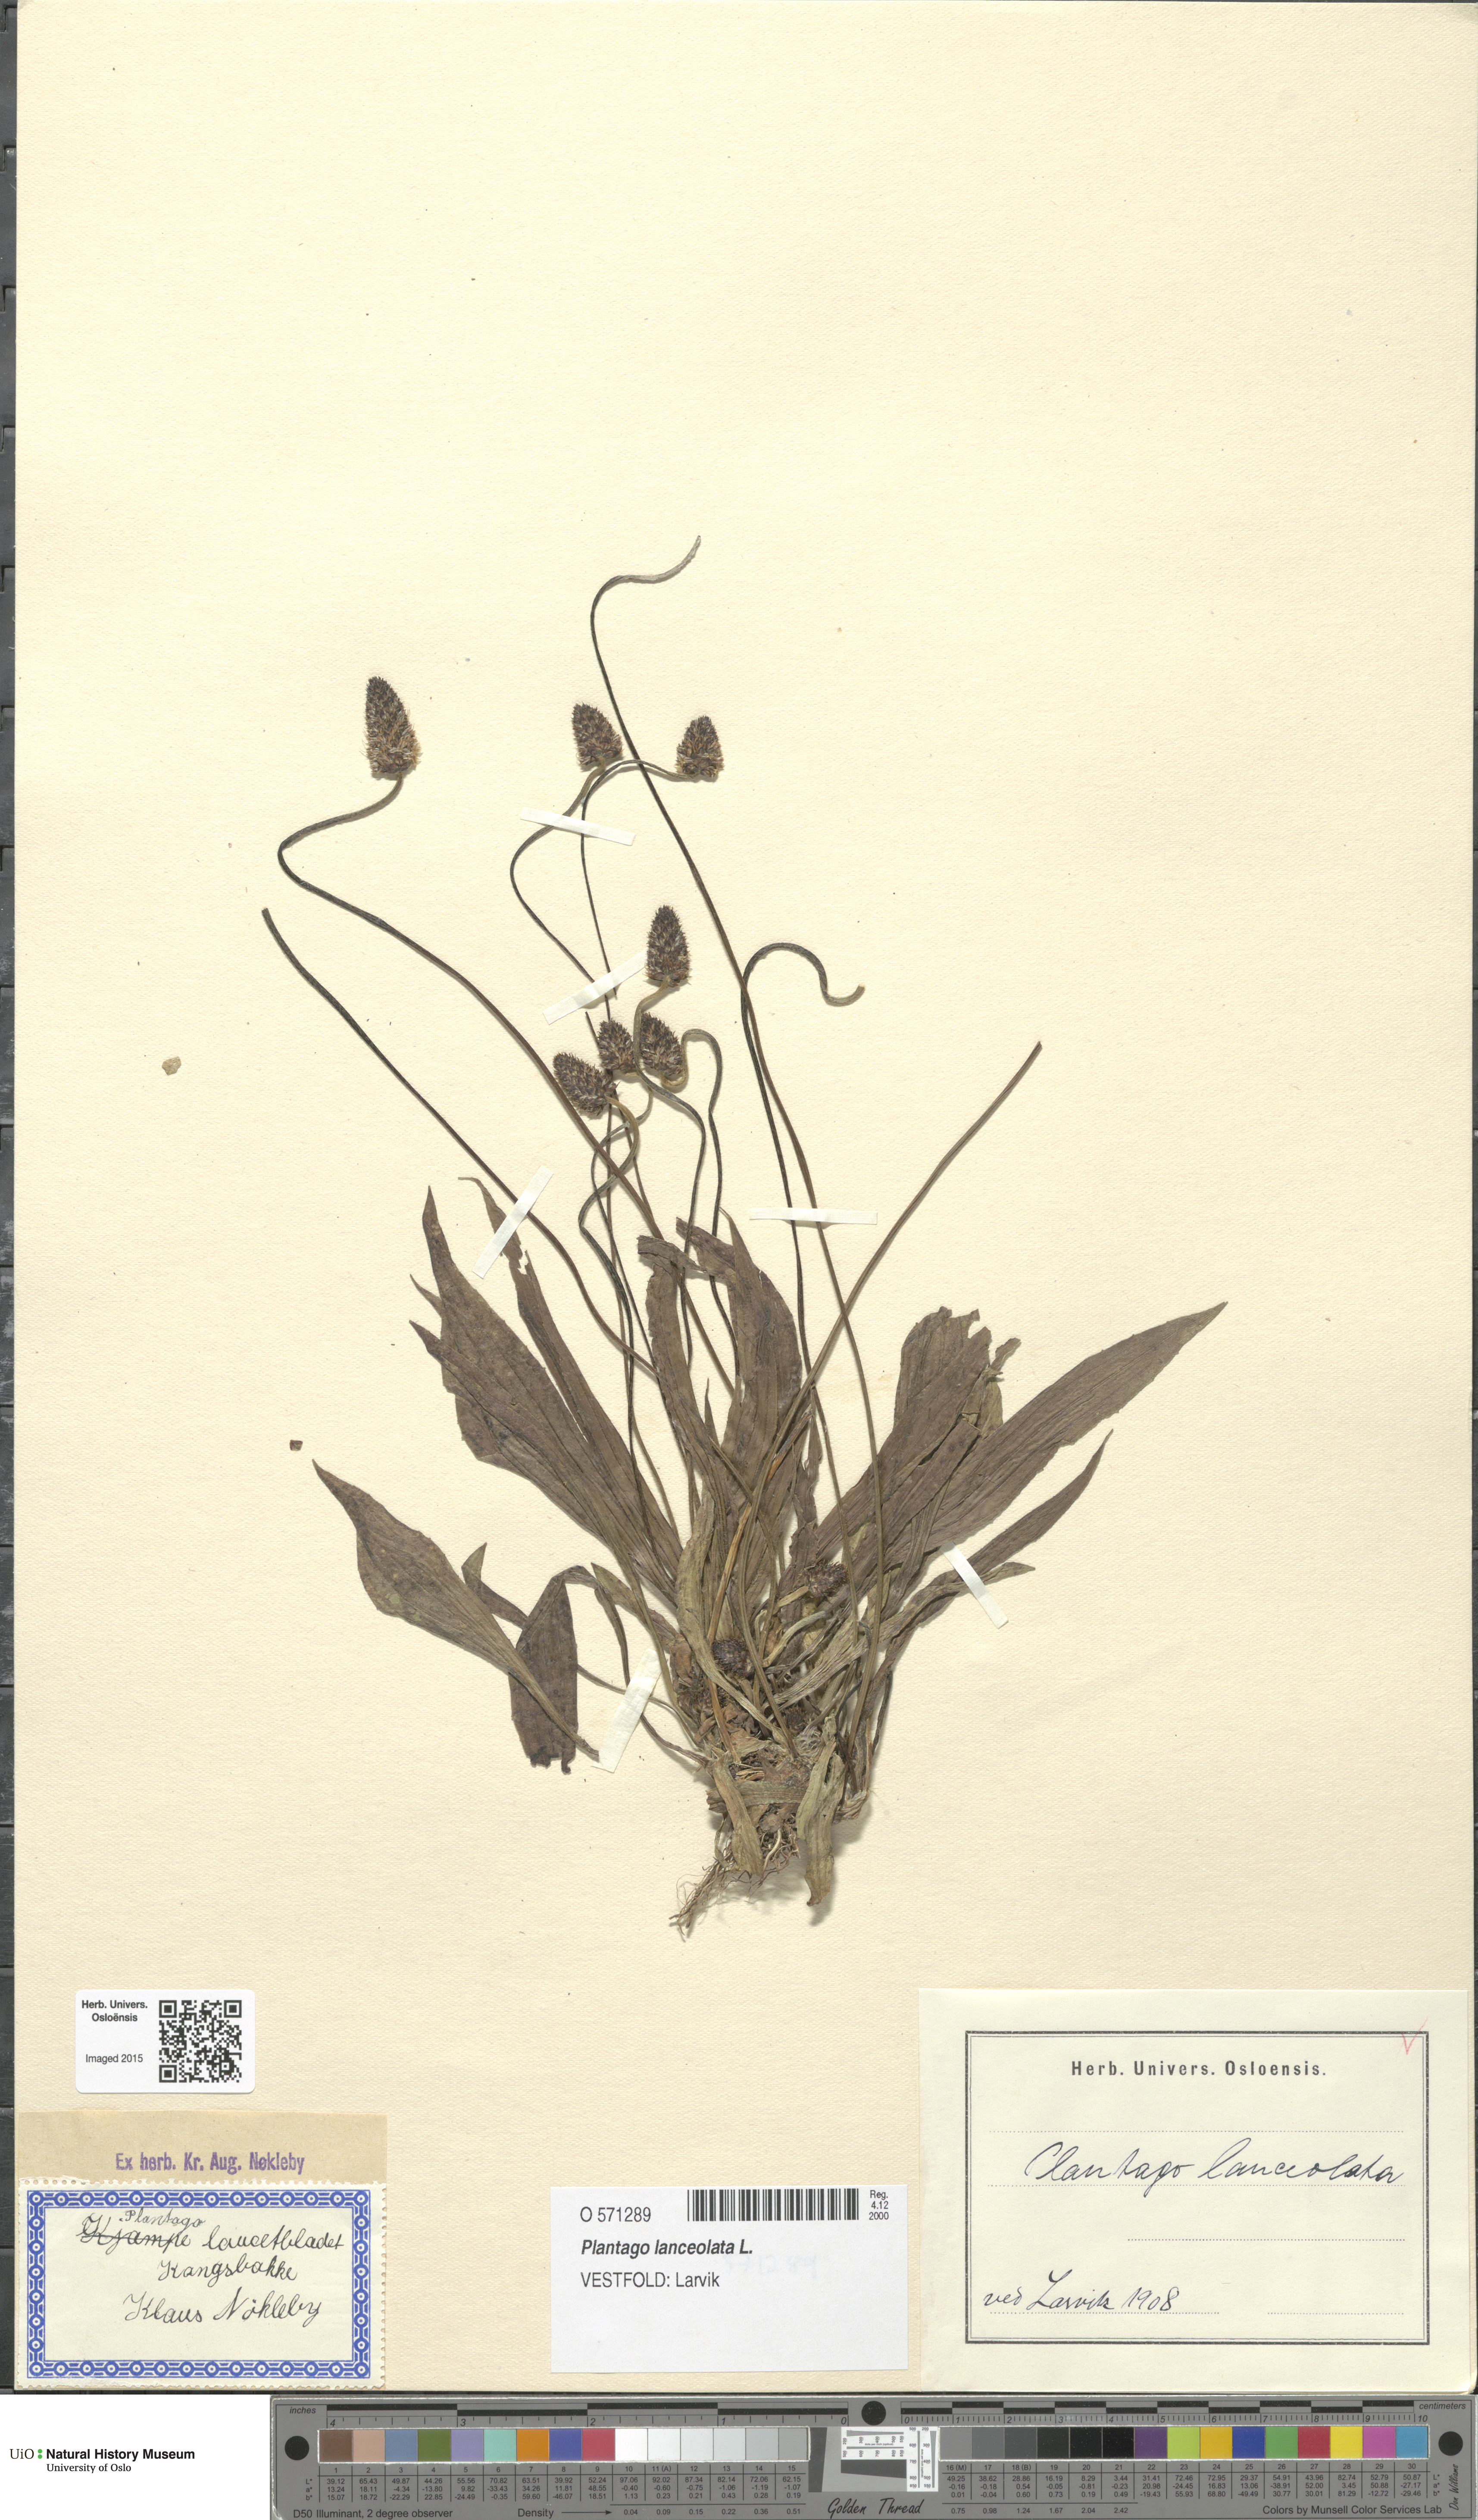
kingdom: Plantae
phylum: Tracheophyta
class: Magnoliopsida
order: Lamiales
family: Plantaginaceae
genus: Plantago
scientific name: Plantago lanceolata
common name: Ribwort plantain
